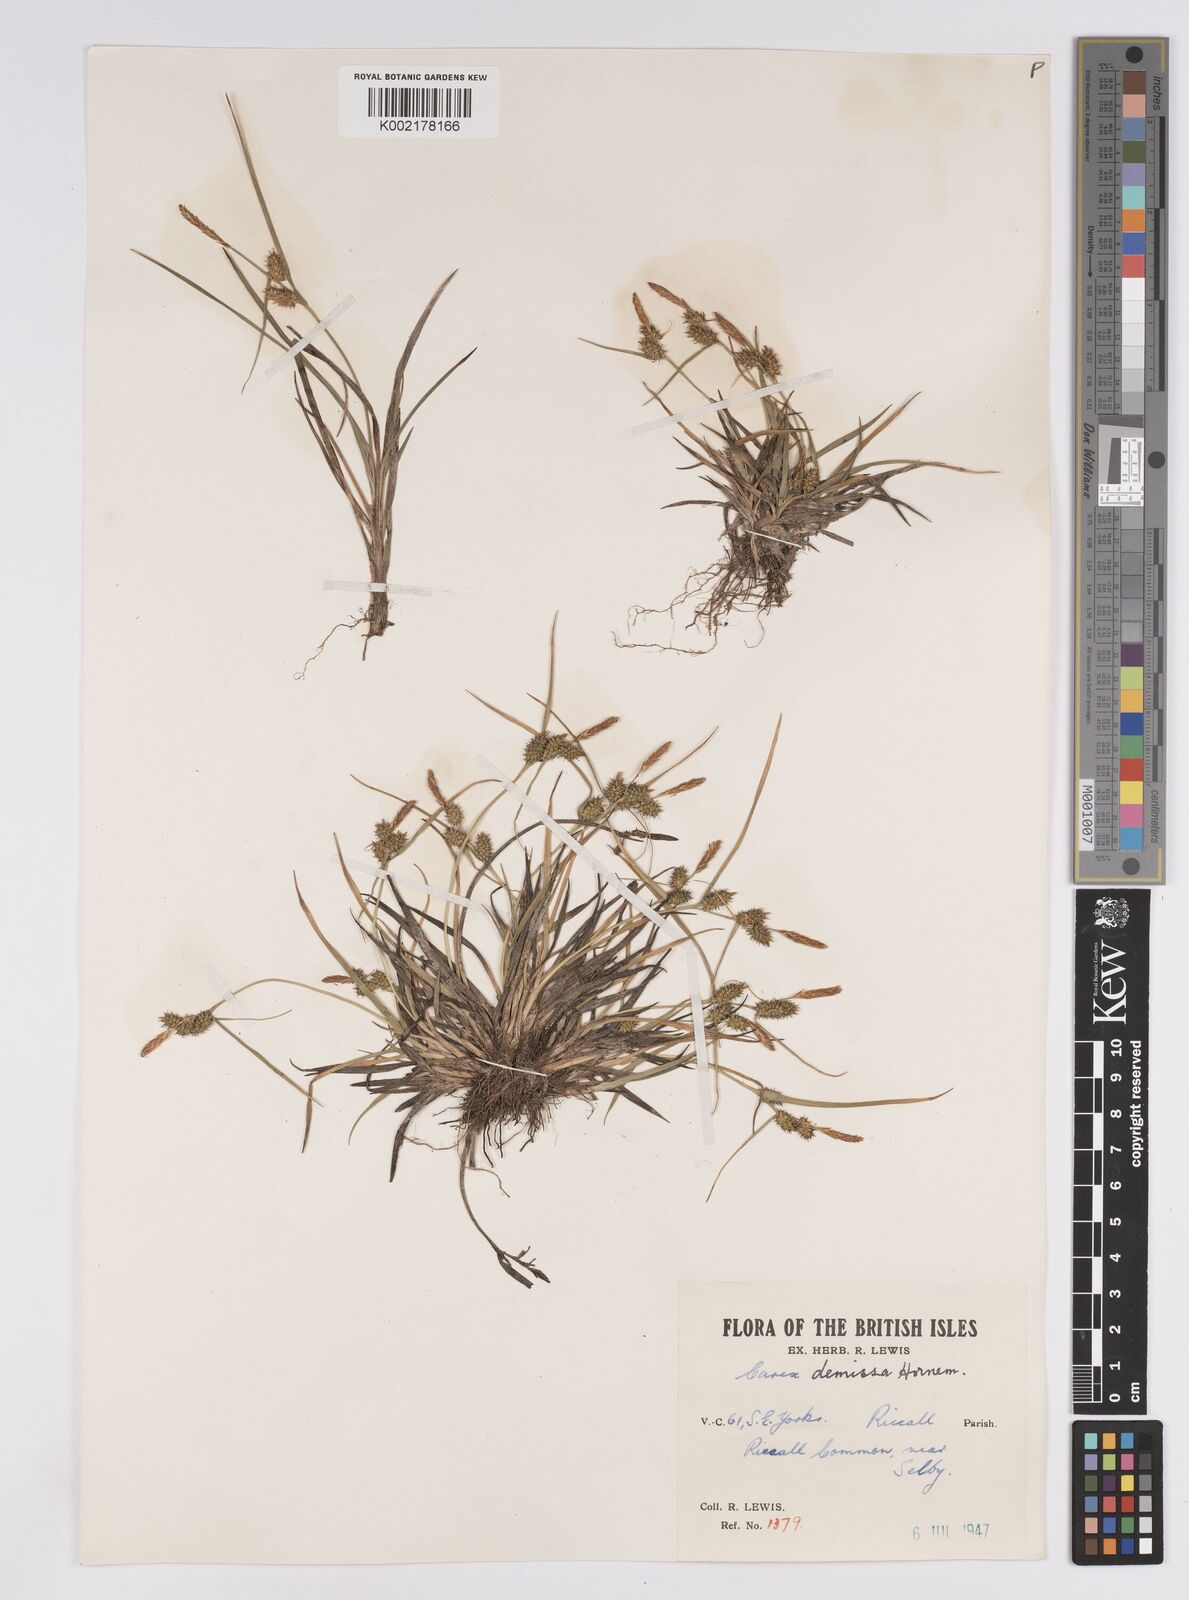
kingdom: Plantae
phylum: Tracheophyta
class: Liliopsida
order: Poales
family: Cyperaceae
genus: Carex
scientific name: Carex demissa
